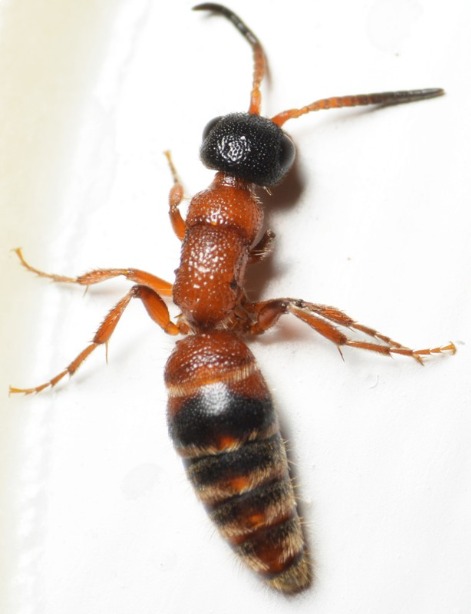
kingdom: Animalia
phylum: Arthropoda
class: Insecta
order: Hymenoptera
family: Mutillidae
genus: Myrmosa
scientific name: Myrmosa atra
